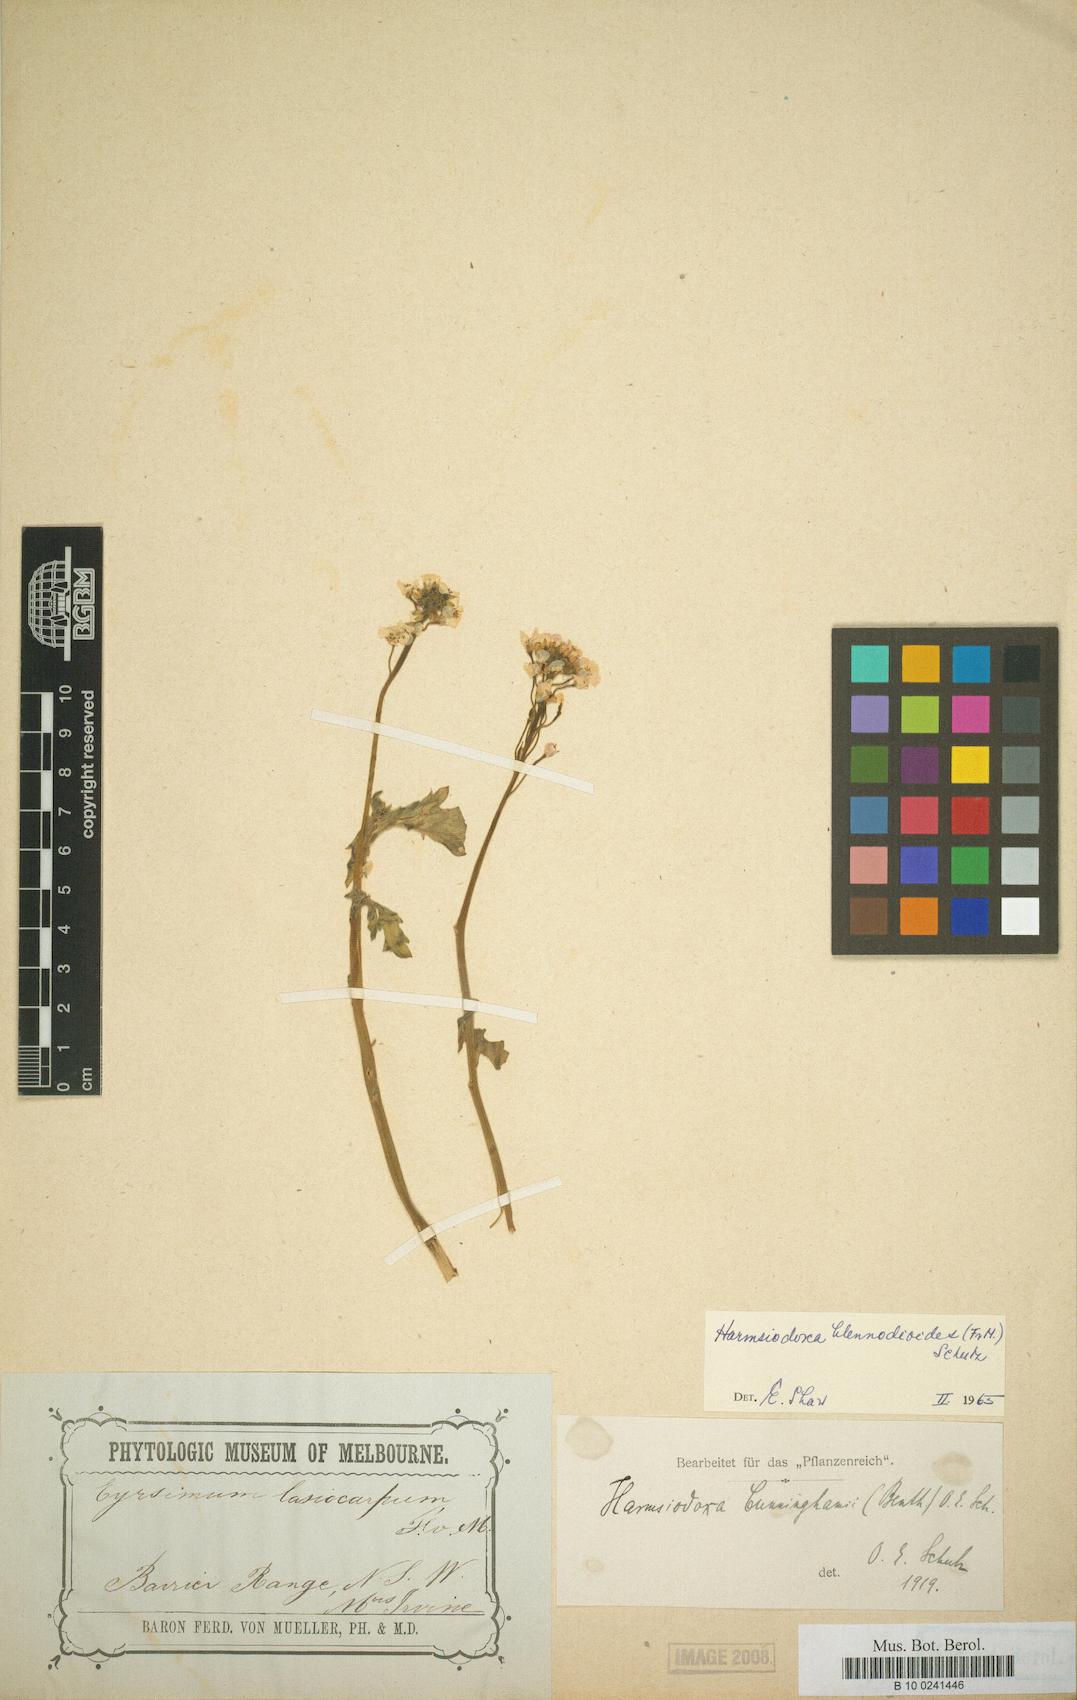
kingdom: Plantae
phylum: Tracheophyta
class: Magnoliopsida
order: Brassicales
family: Brassicaceae
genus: Harmsiodoxa
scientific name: Harmsiodoxa blennodioides
